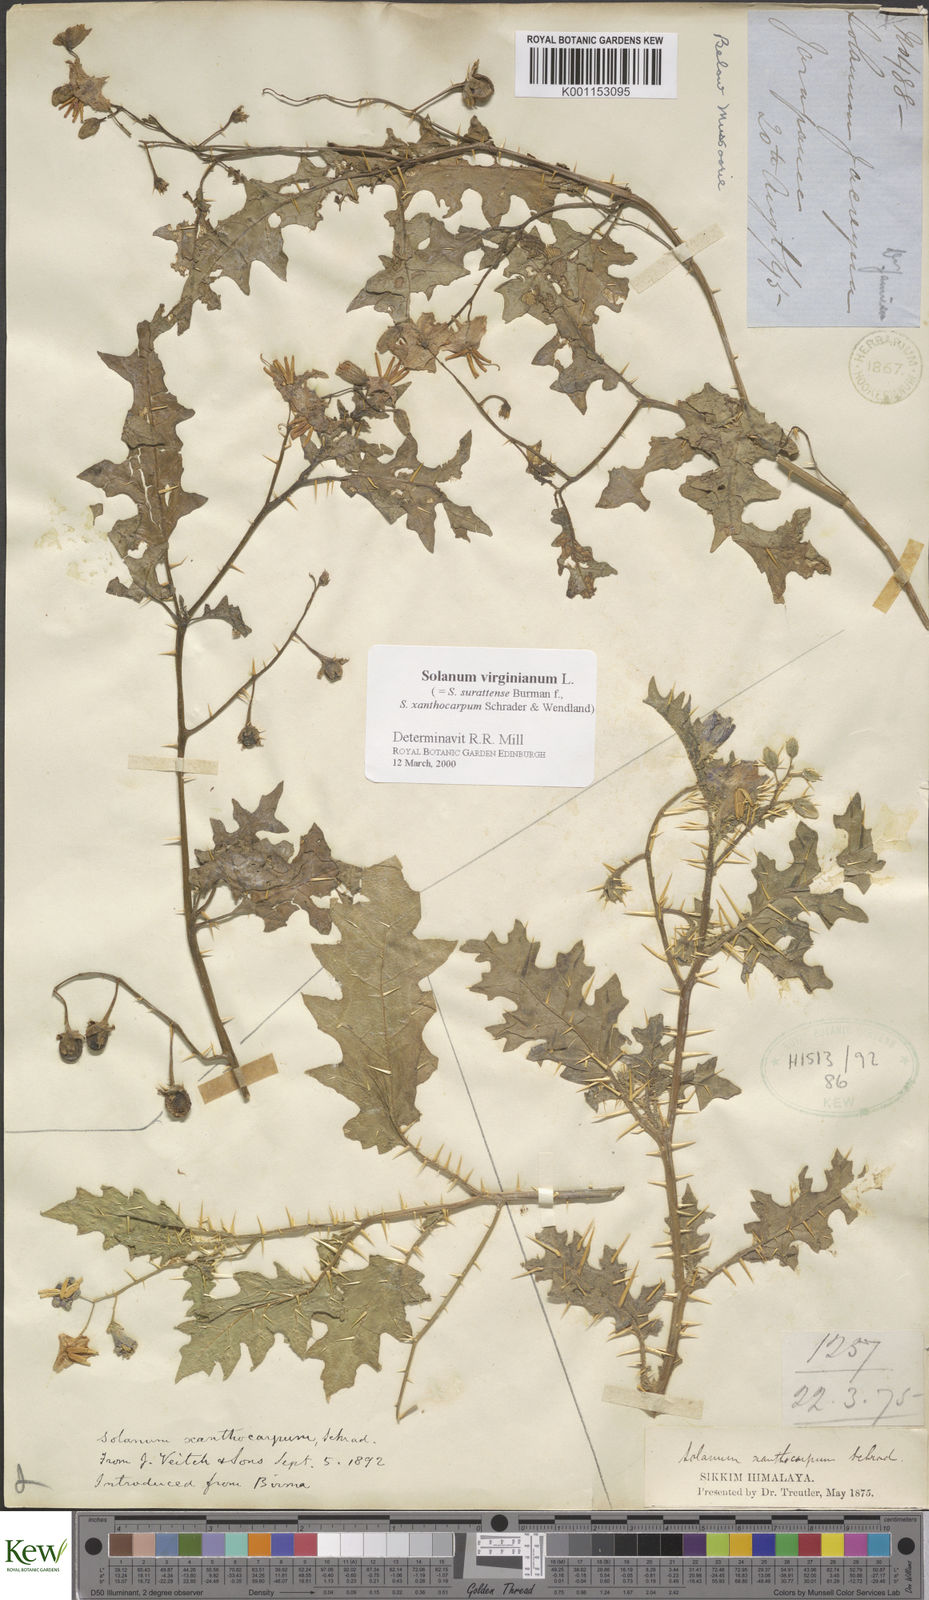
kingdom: Plantae
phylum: Tracheophyta
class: Magnoliopsida
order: Solanales
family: Solanaceae
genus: Solanum
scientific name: Solanum virginianum
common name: Surattense nightshade
